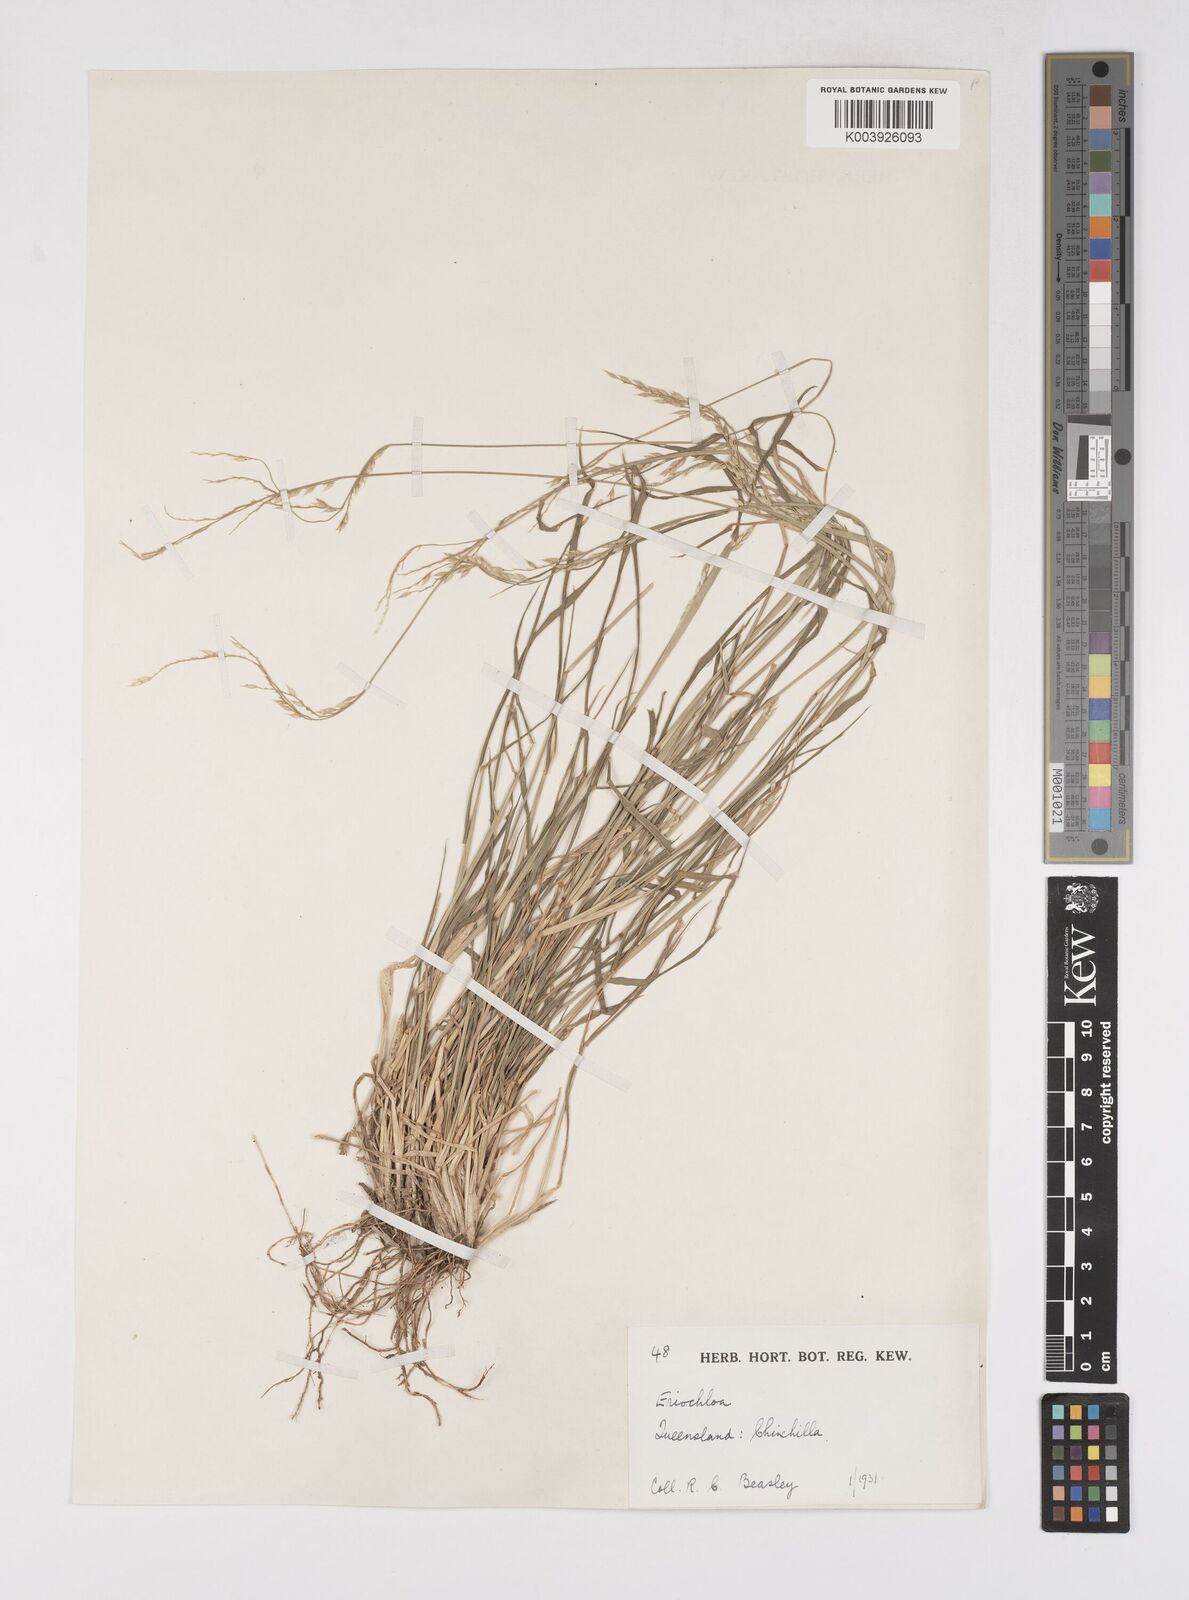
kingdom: Plantae
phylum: Tracheophyta
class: Liliopsida
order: Poales
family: Poaceae
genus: Eriochloa
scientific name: Eriochloa
